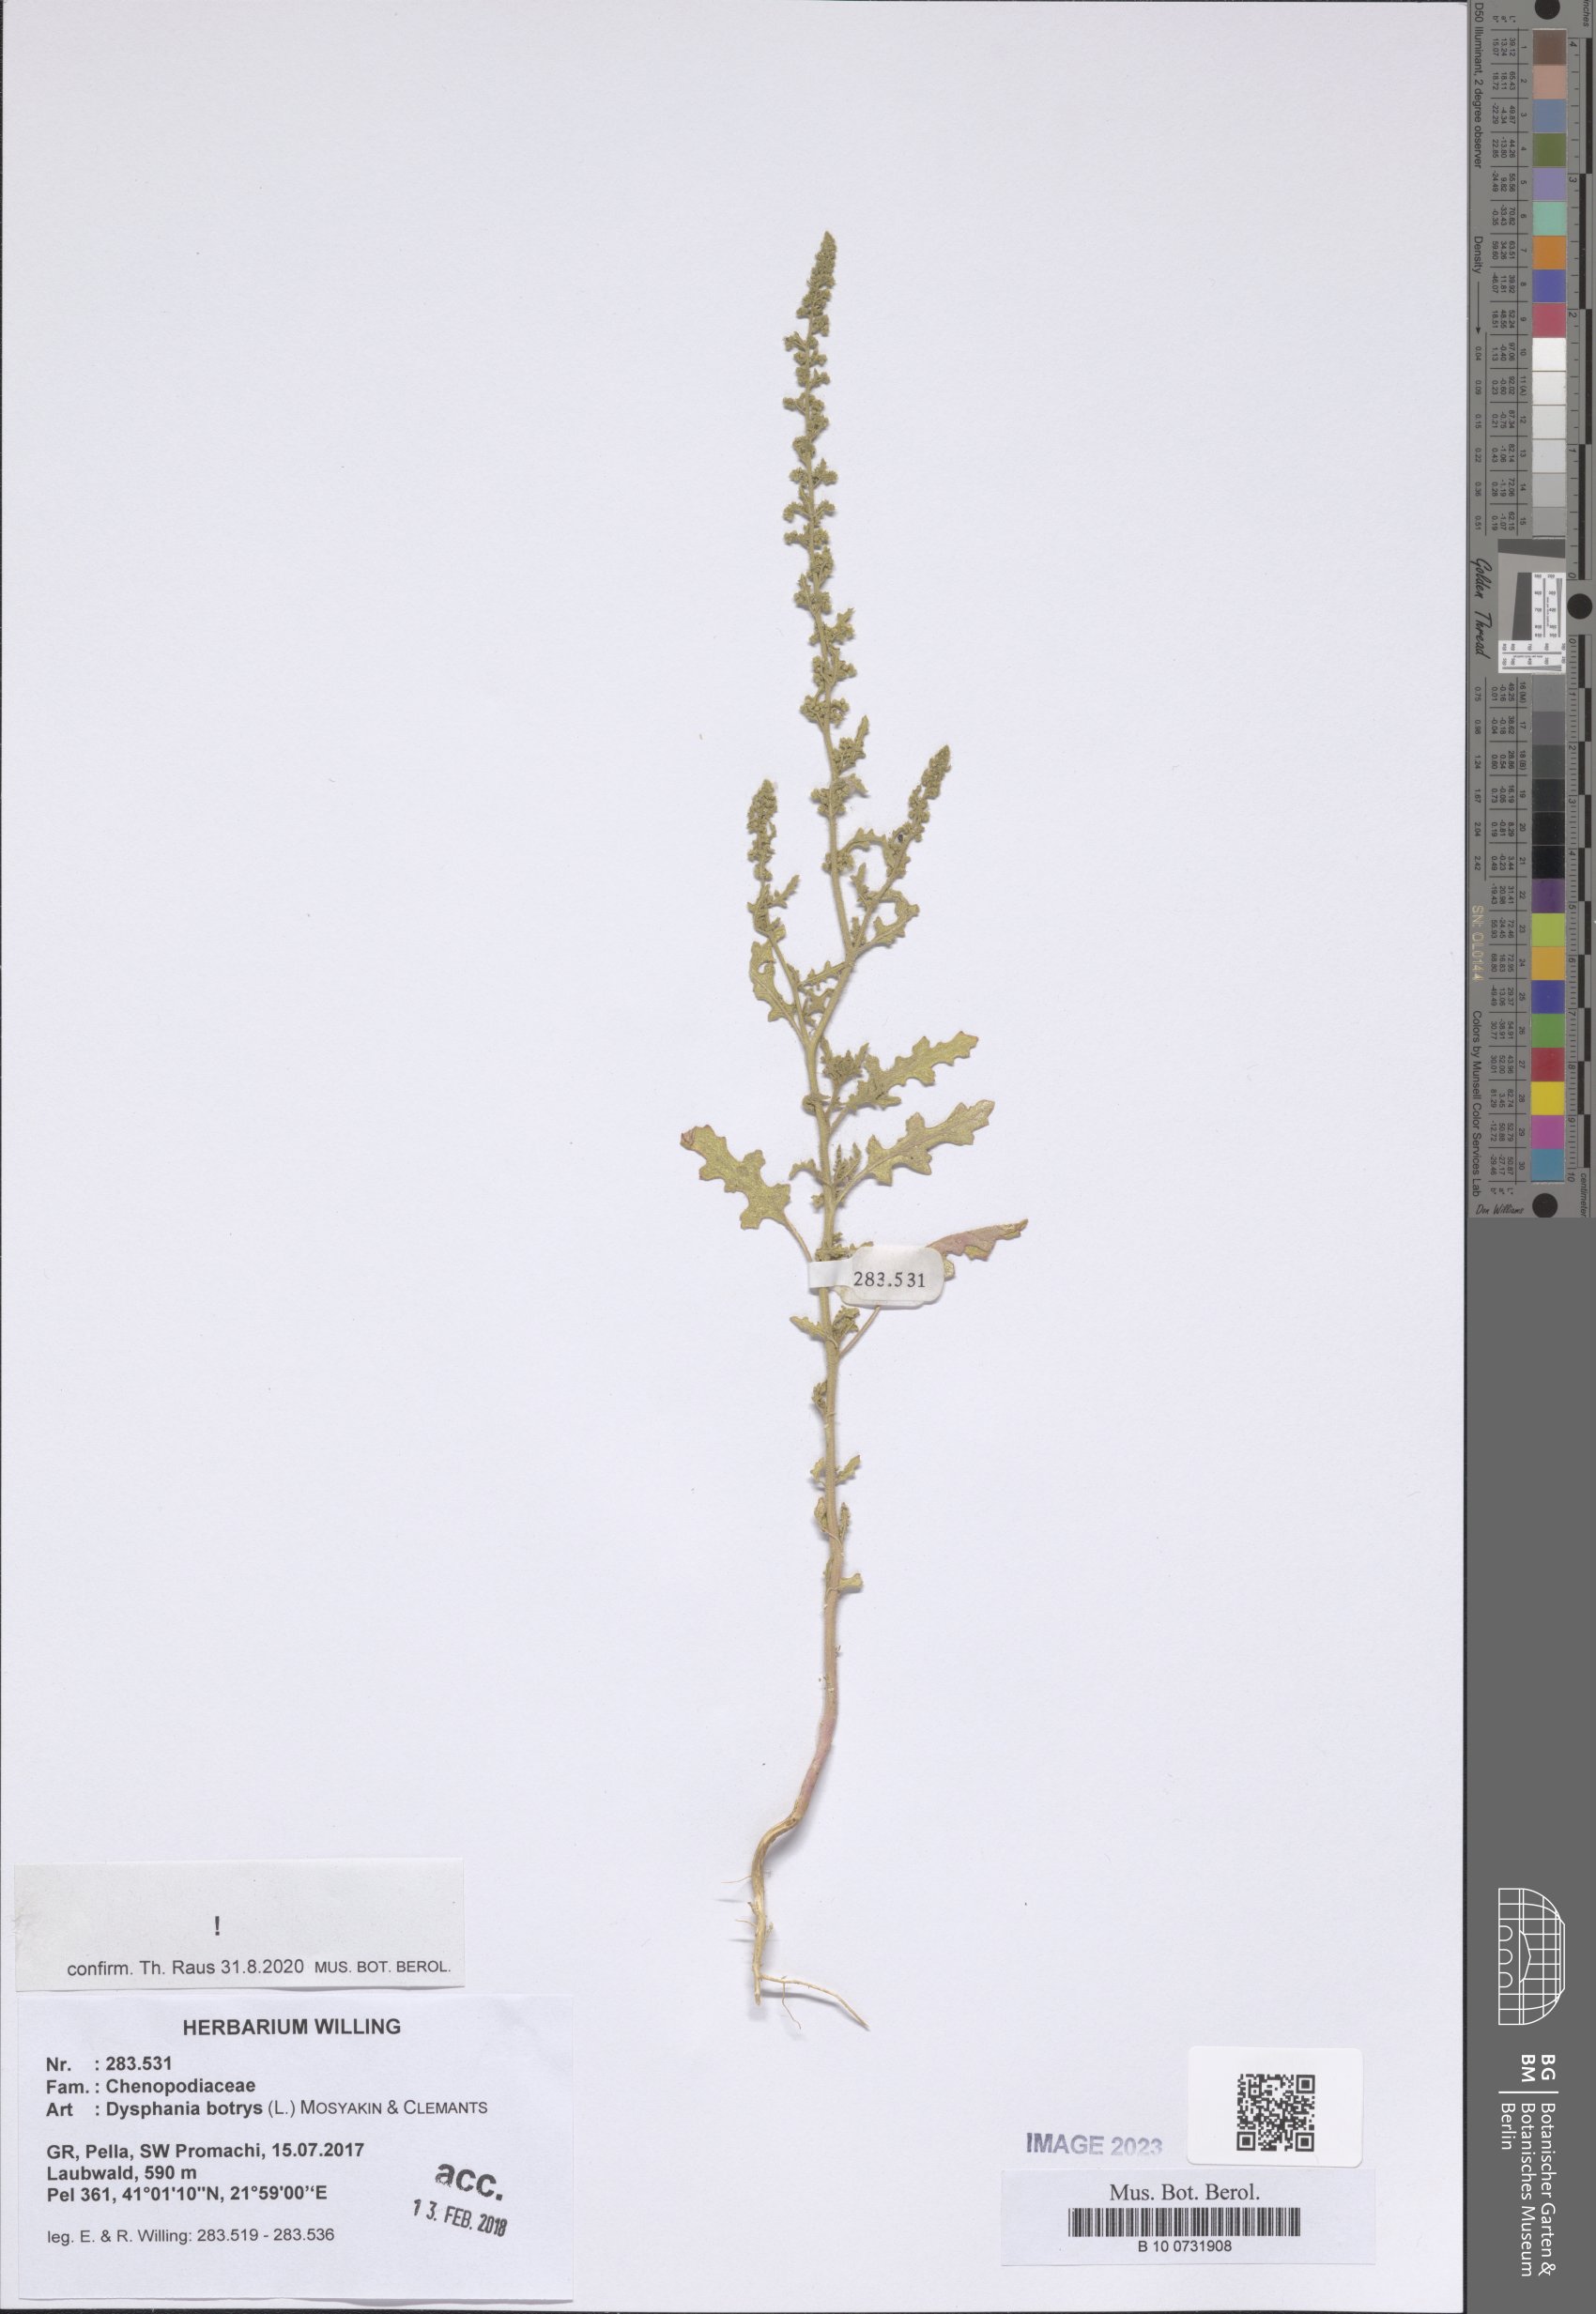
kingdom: Plantae
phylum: Tracheophyta
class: Magnoliopsida
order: Caryophyllales
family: Amaranthaceae
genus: Dysphania
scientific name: Dysphania botrys
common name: Feather-geranium
